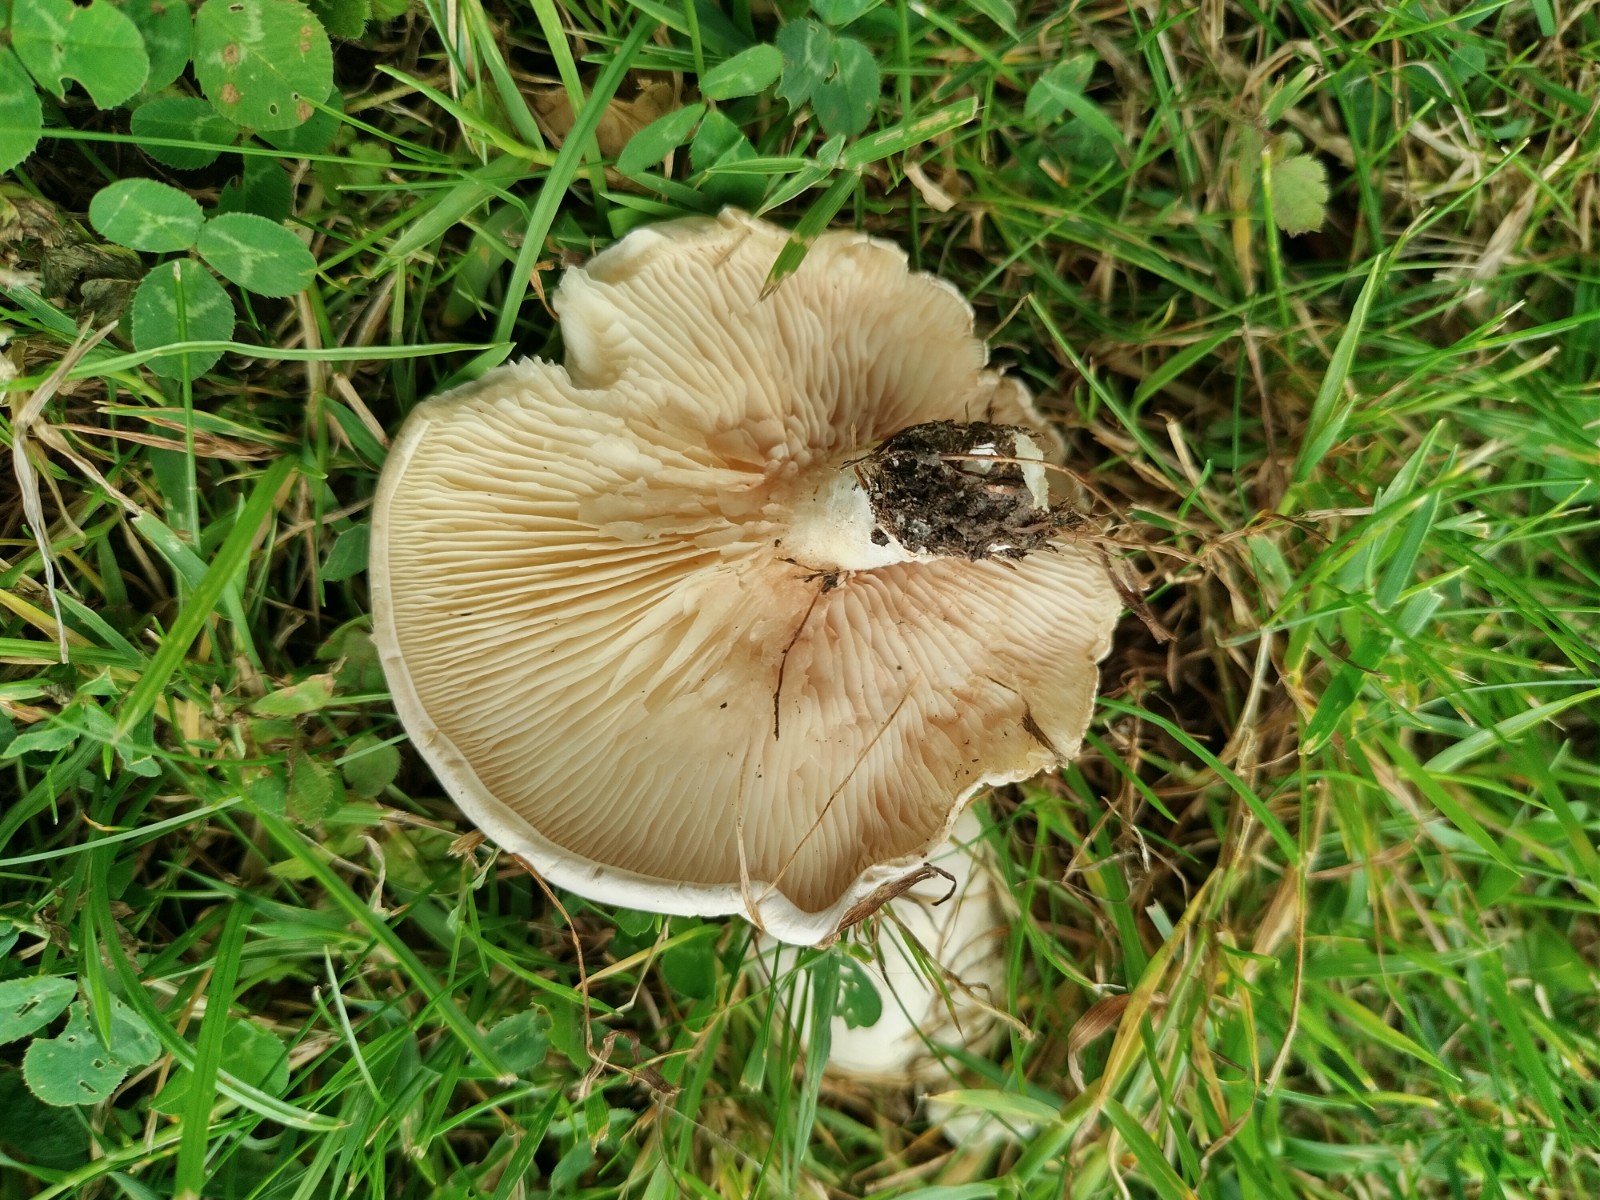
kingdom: Fungi
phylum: Basidiomycota
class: Agaricomycetes
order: Agaricales
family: Entolomataceae
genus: Clitopilus
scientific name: Clitopilus prunulus
